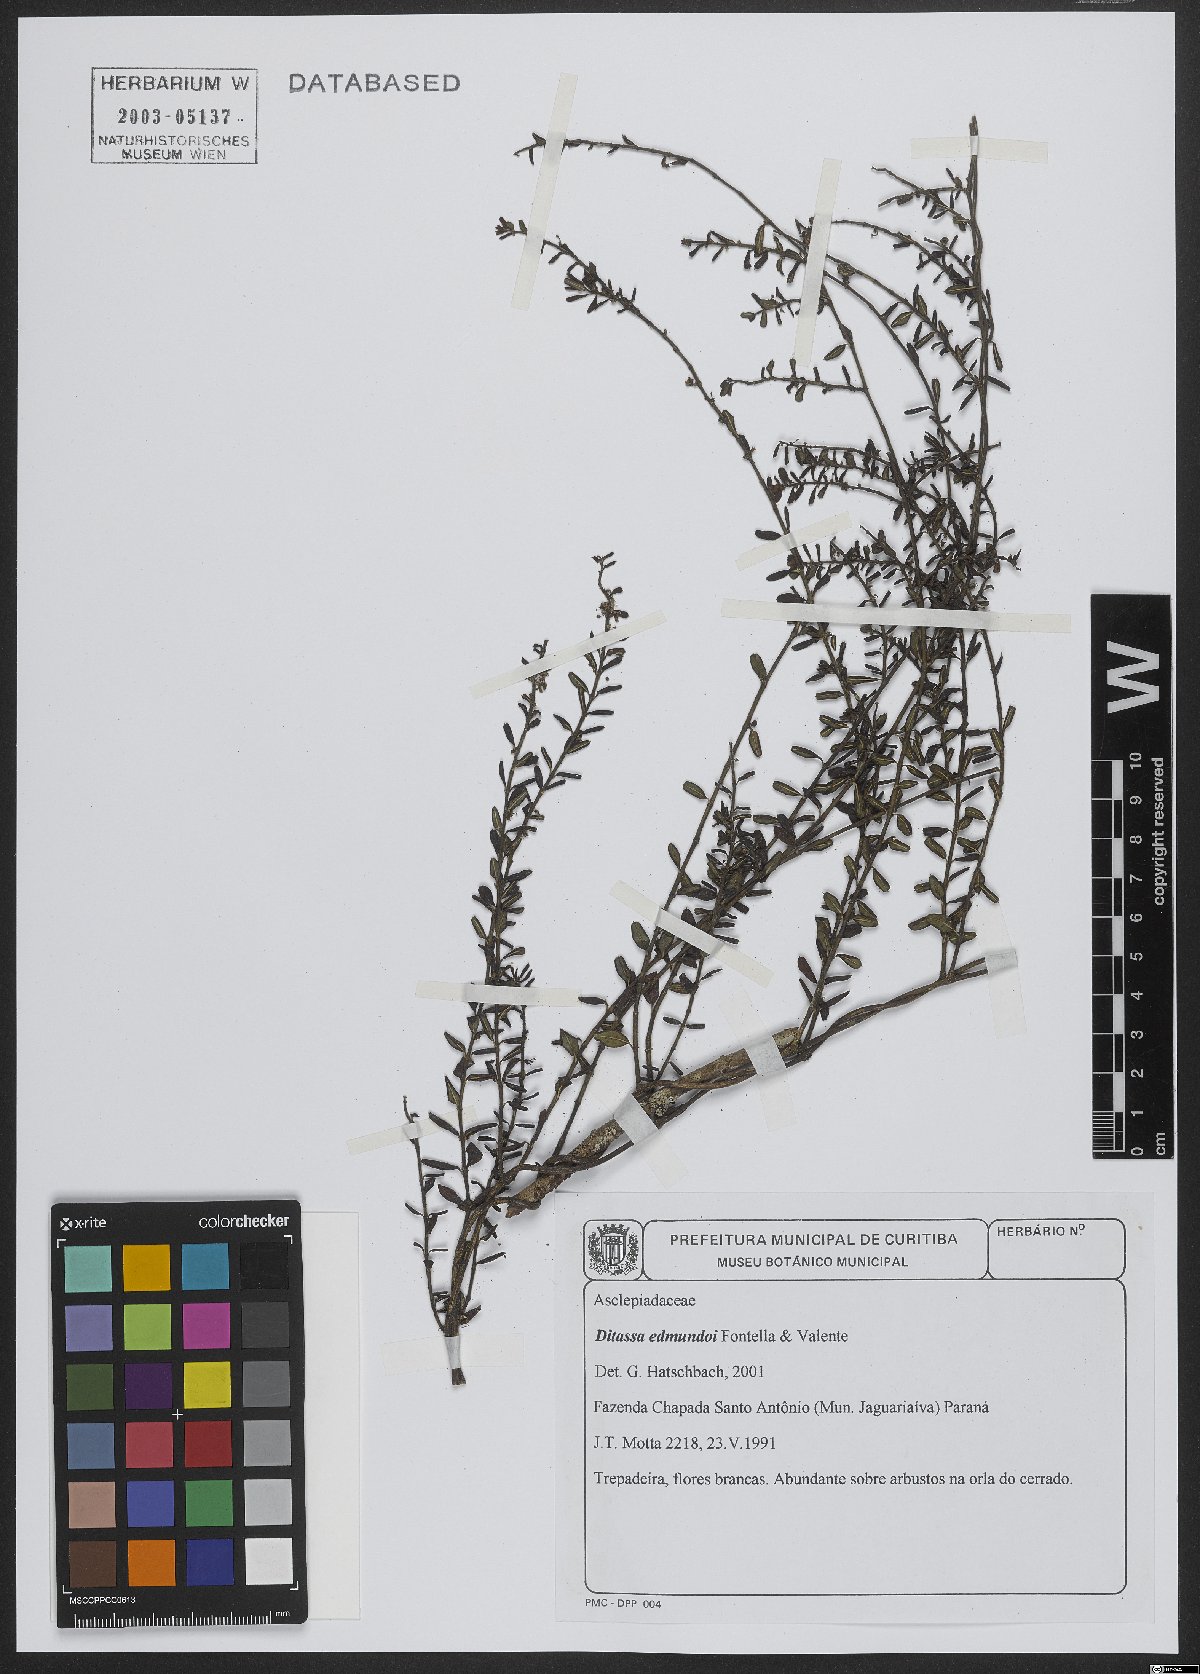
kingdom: Plantae
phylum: Tracheophyta
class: Magnoliopsida
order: Gentianales
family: Apocynaceae
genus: Ditassa
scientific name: Ditassa edmundoi
